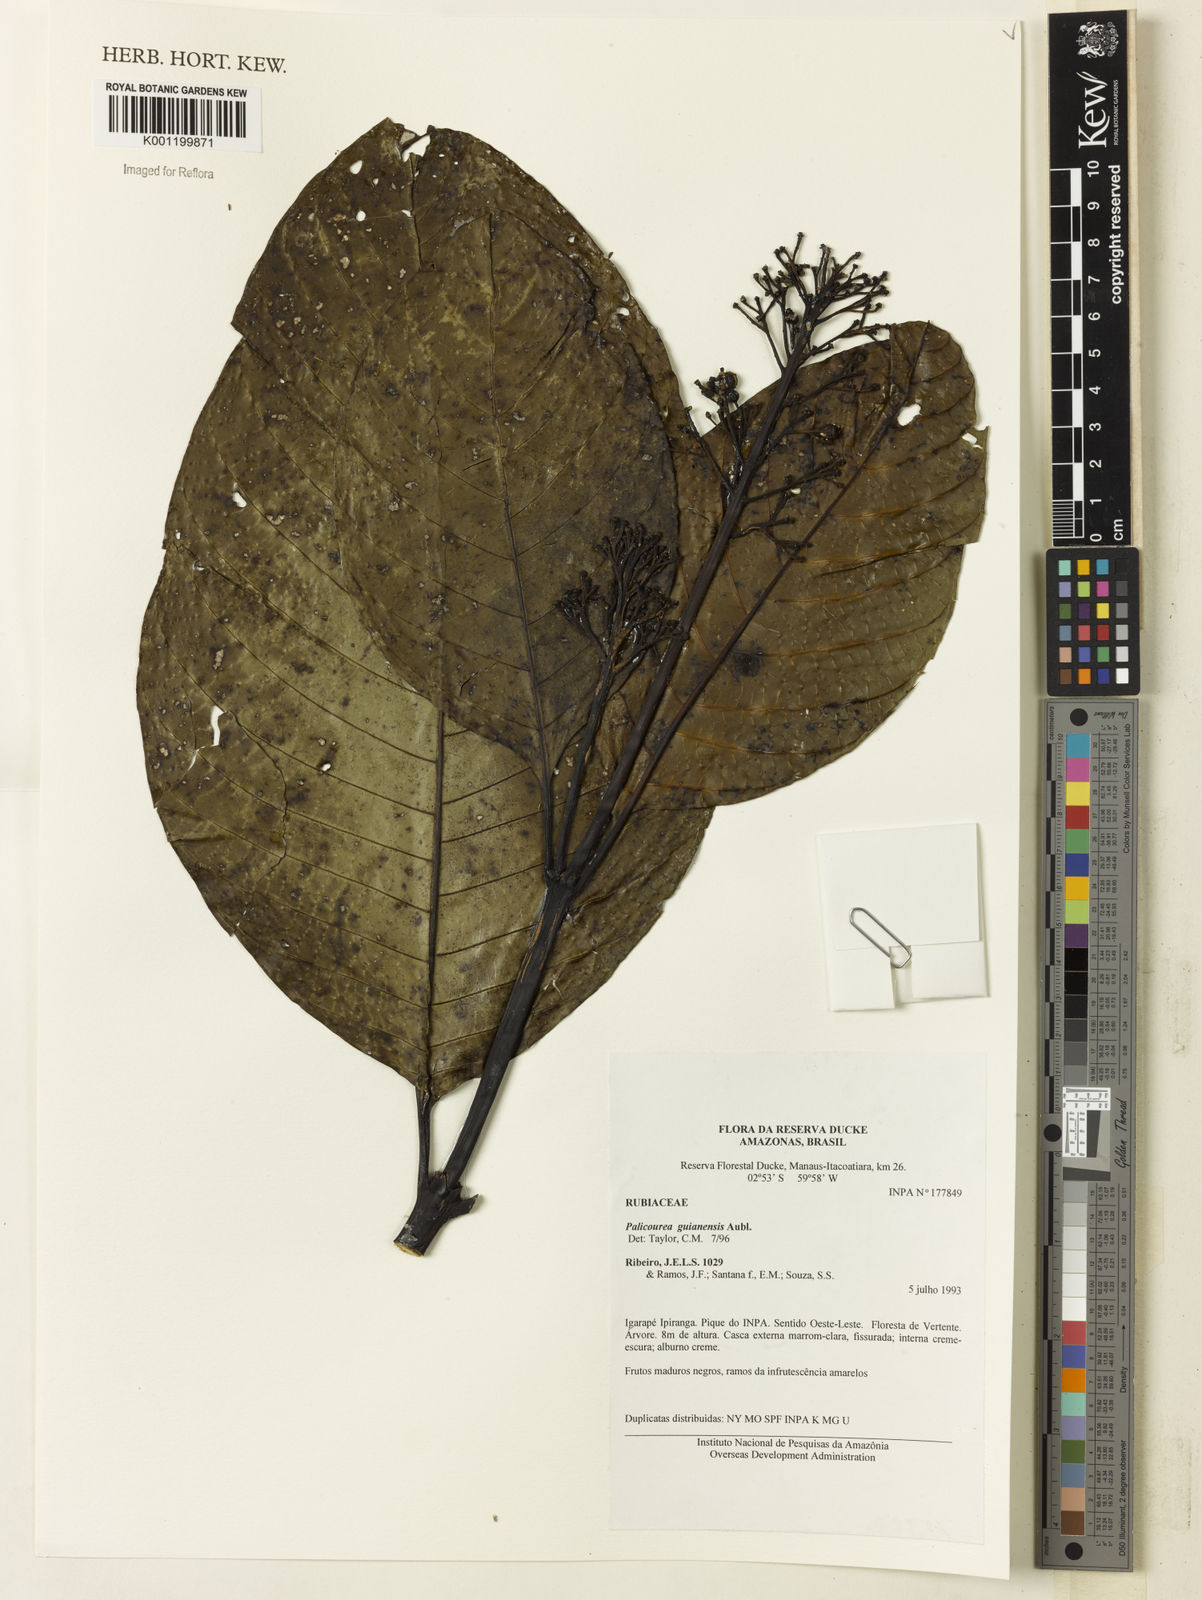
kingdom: Plantae
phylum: Tracheophyta
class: Magnoliopsida
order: Gentianales
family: Rubiaceae
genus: Palicourea
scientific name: Palicourea guianensis
